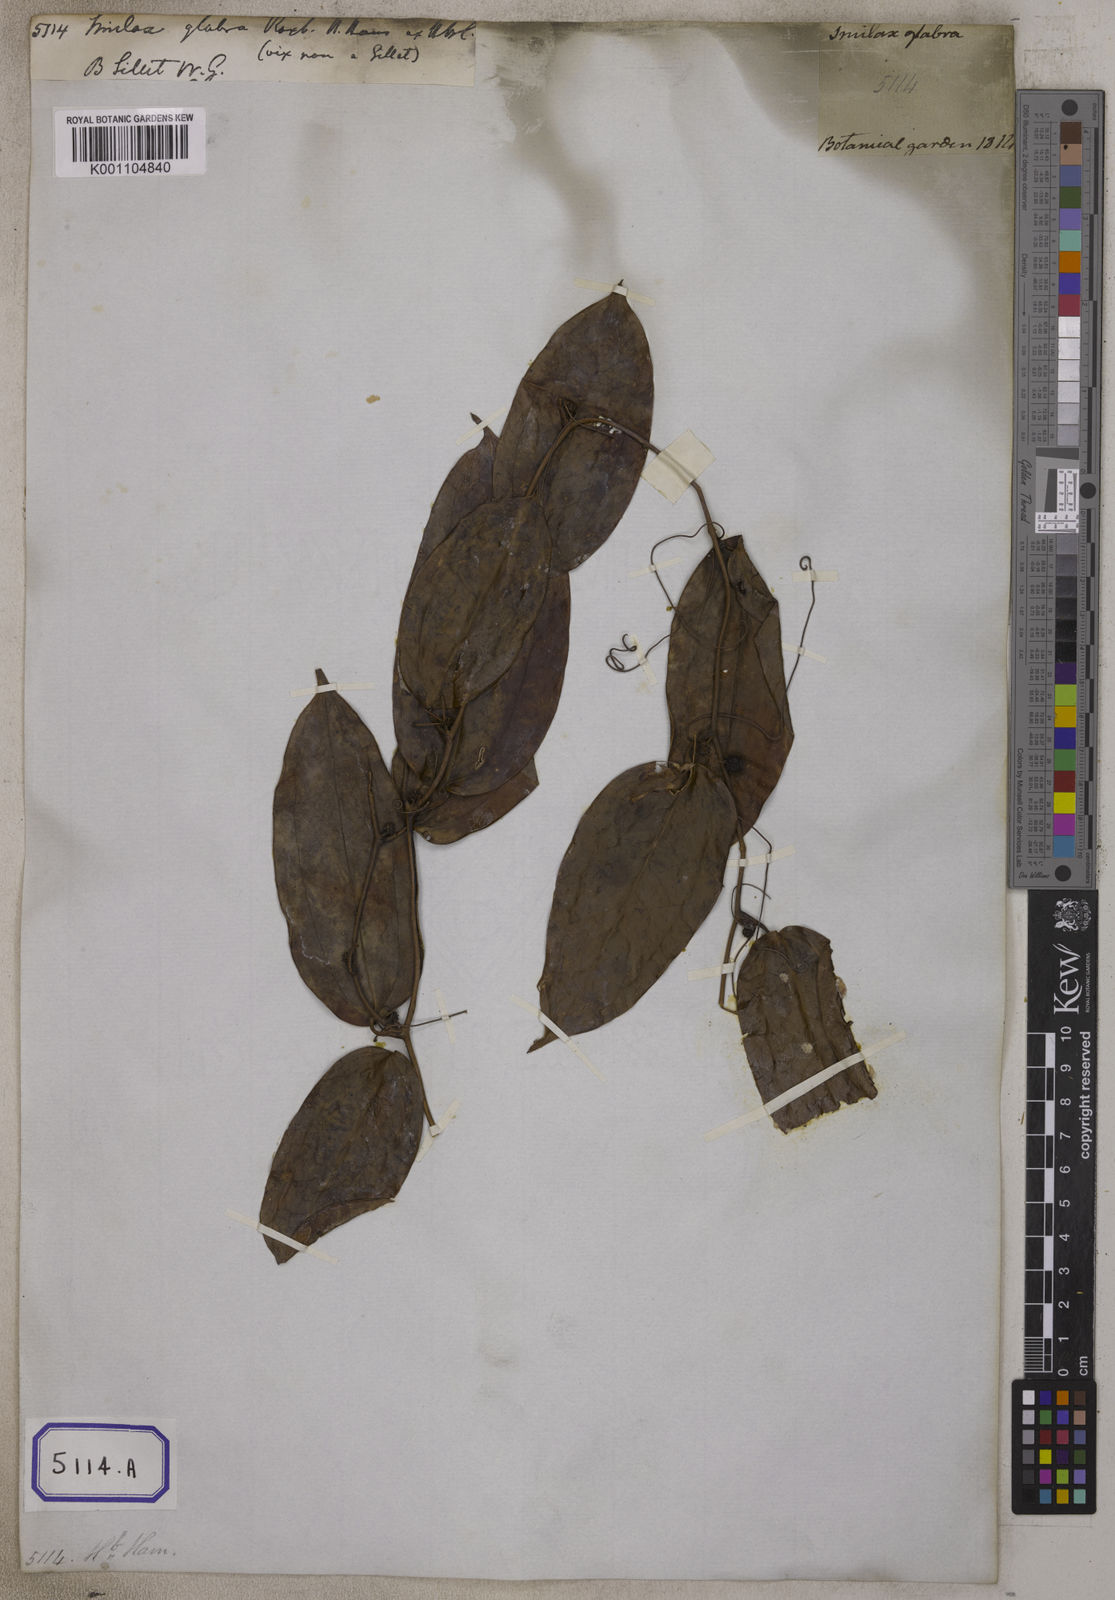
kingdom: Plantae
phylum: Tracheophyta
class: Liliopsida
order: Liliales
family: Smilacaceae
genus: Smilax
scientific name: Smilax glabra
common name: Chinese smilax
